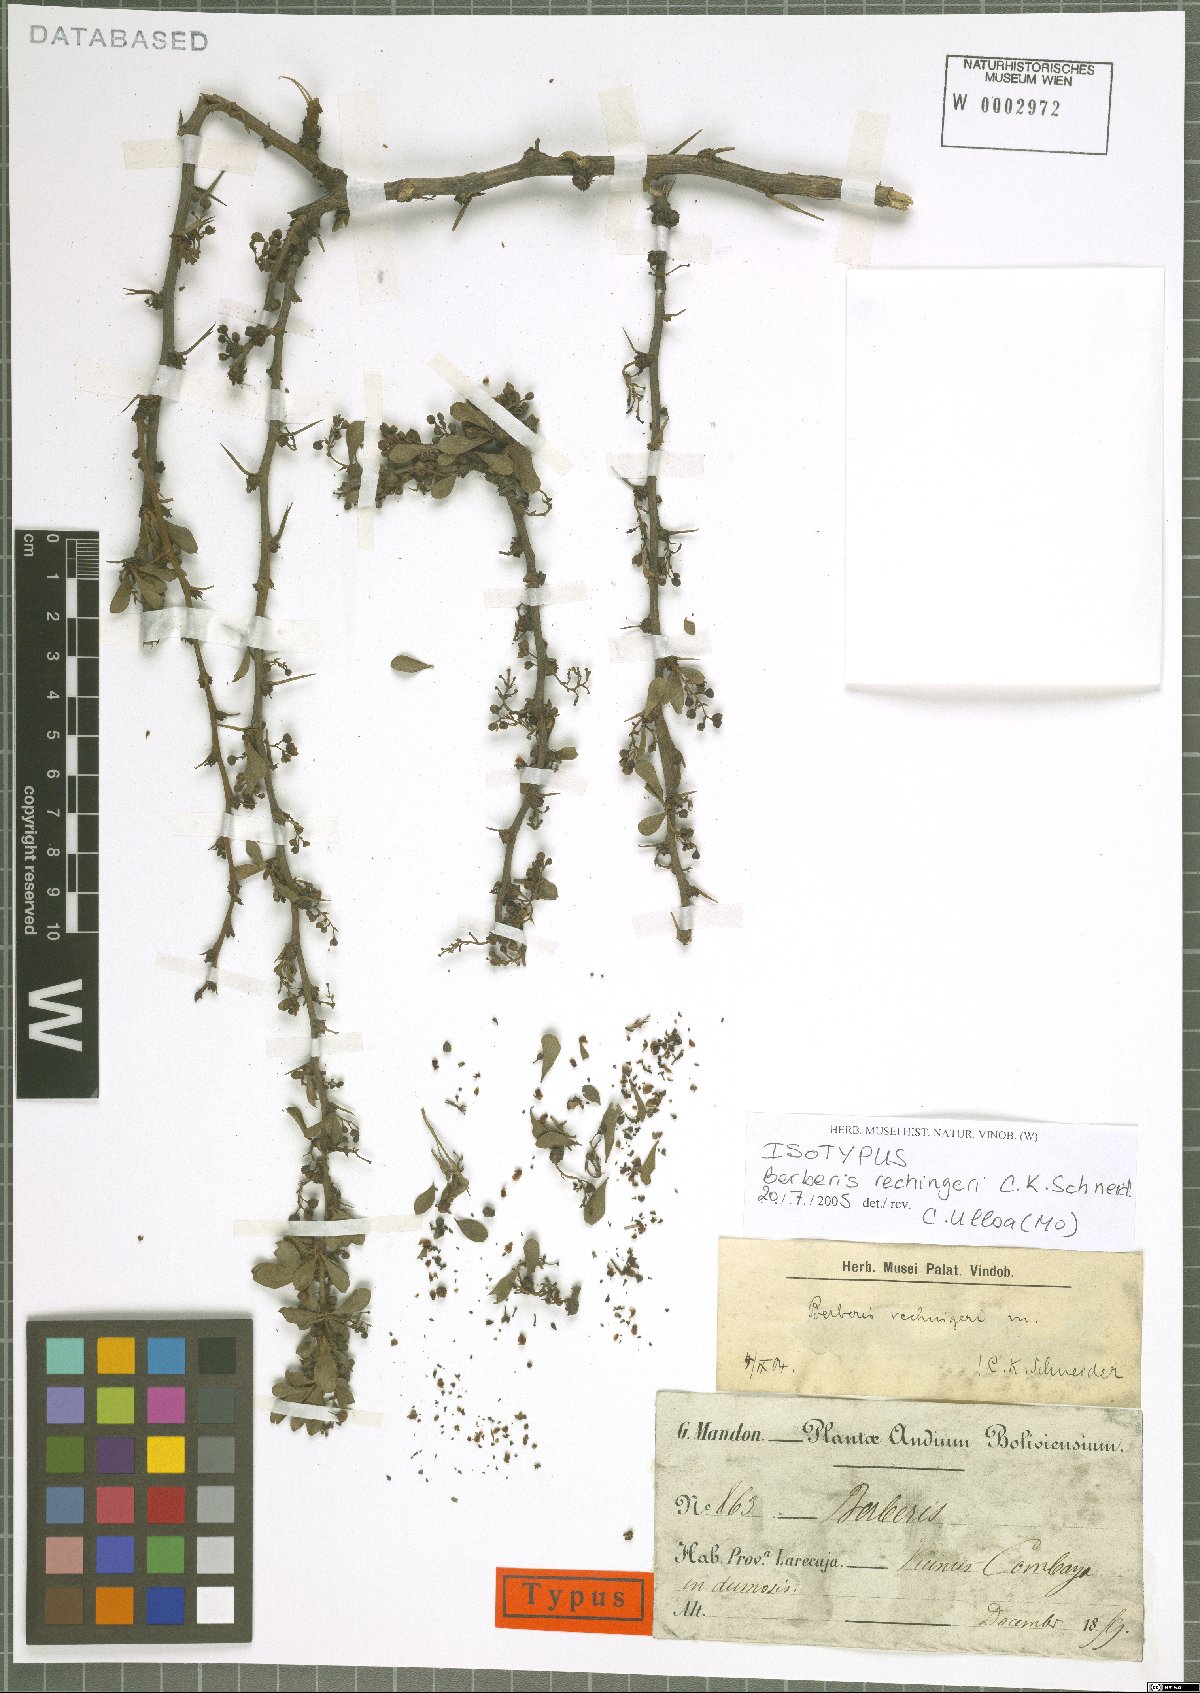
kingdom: Plantae
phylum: Tracheophyta
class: Magnoliopsida
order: Ranunculales
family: Berberidaceae
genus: Berberis
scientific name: Berberis rechingeri
